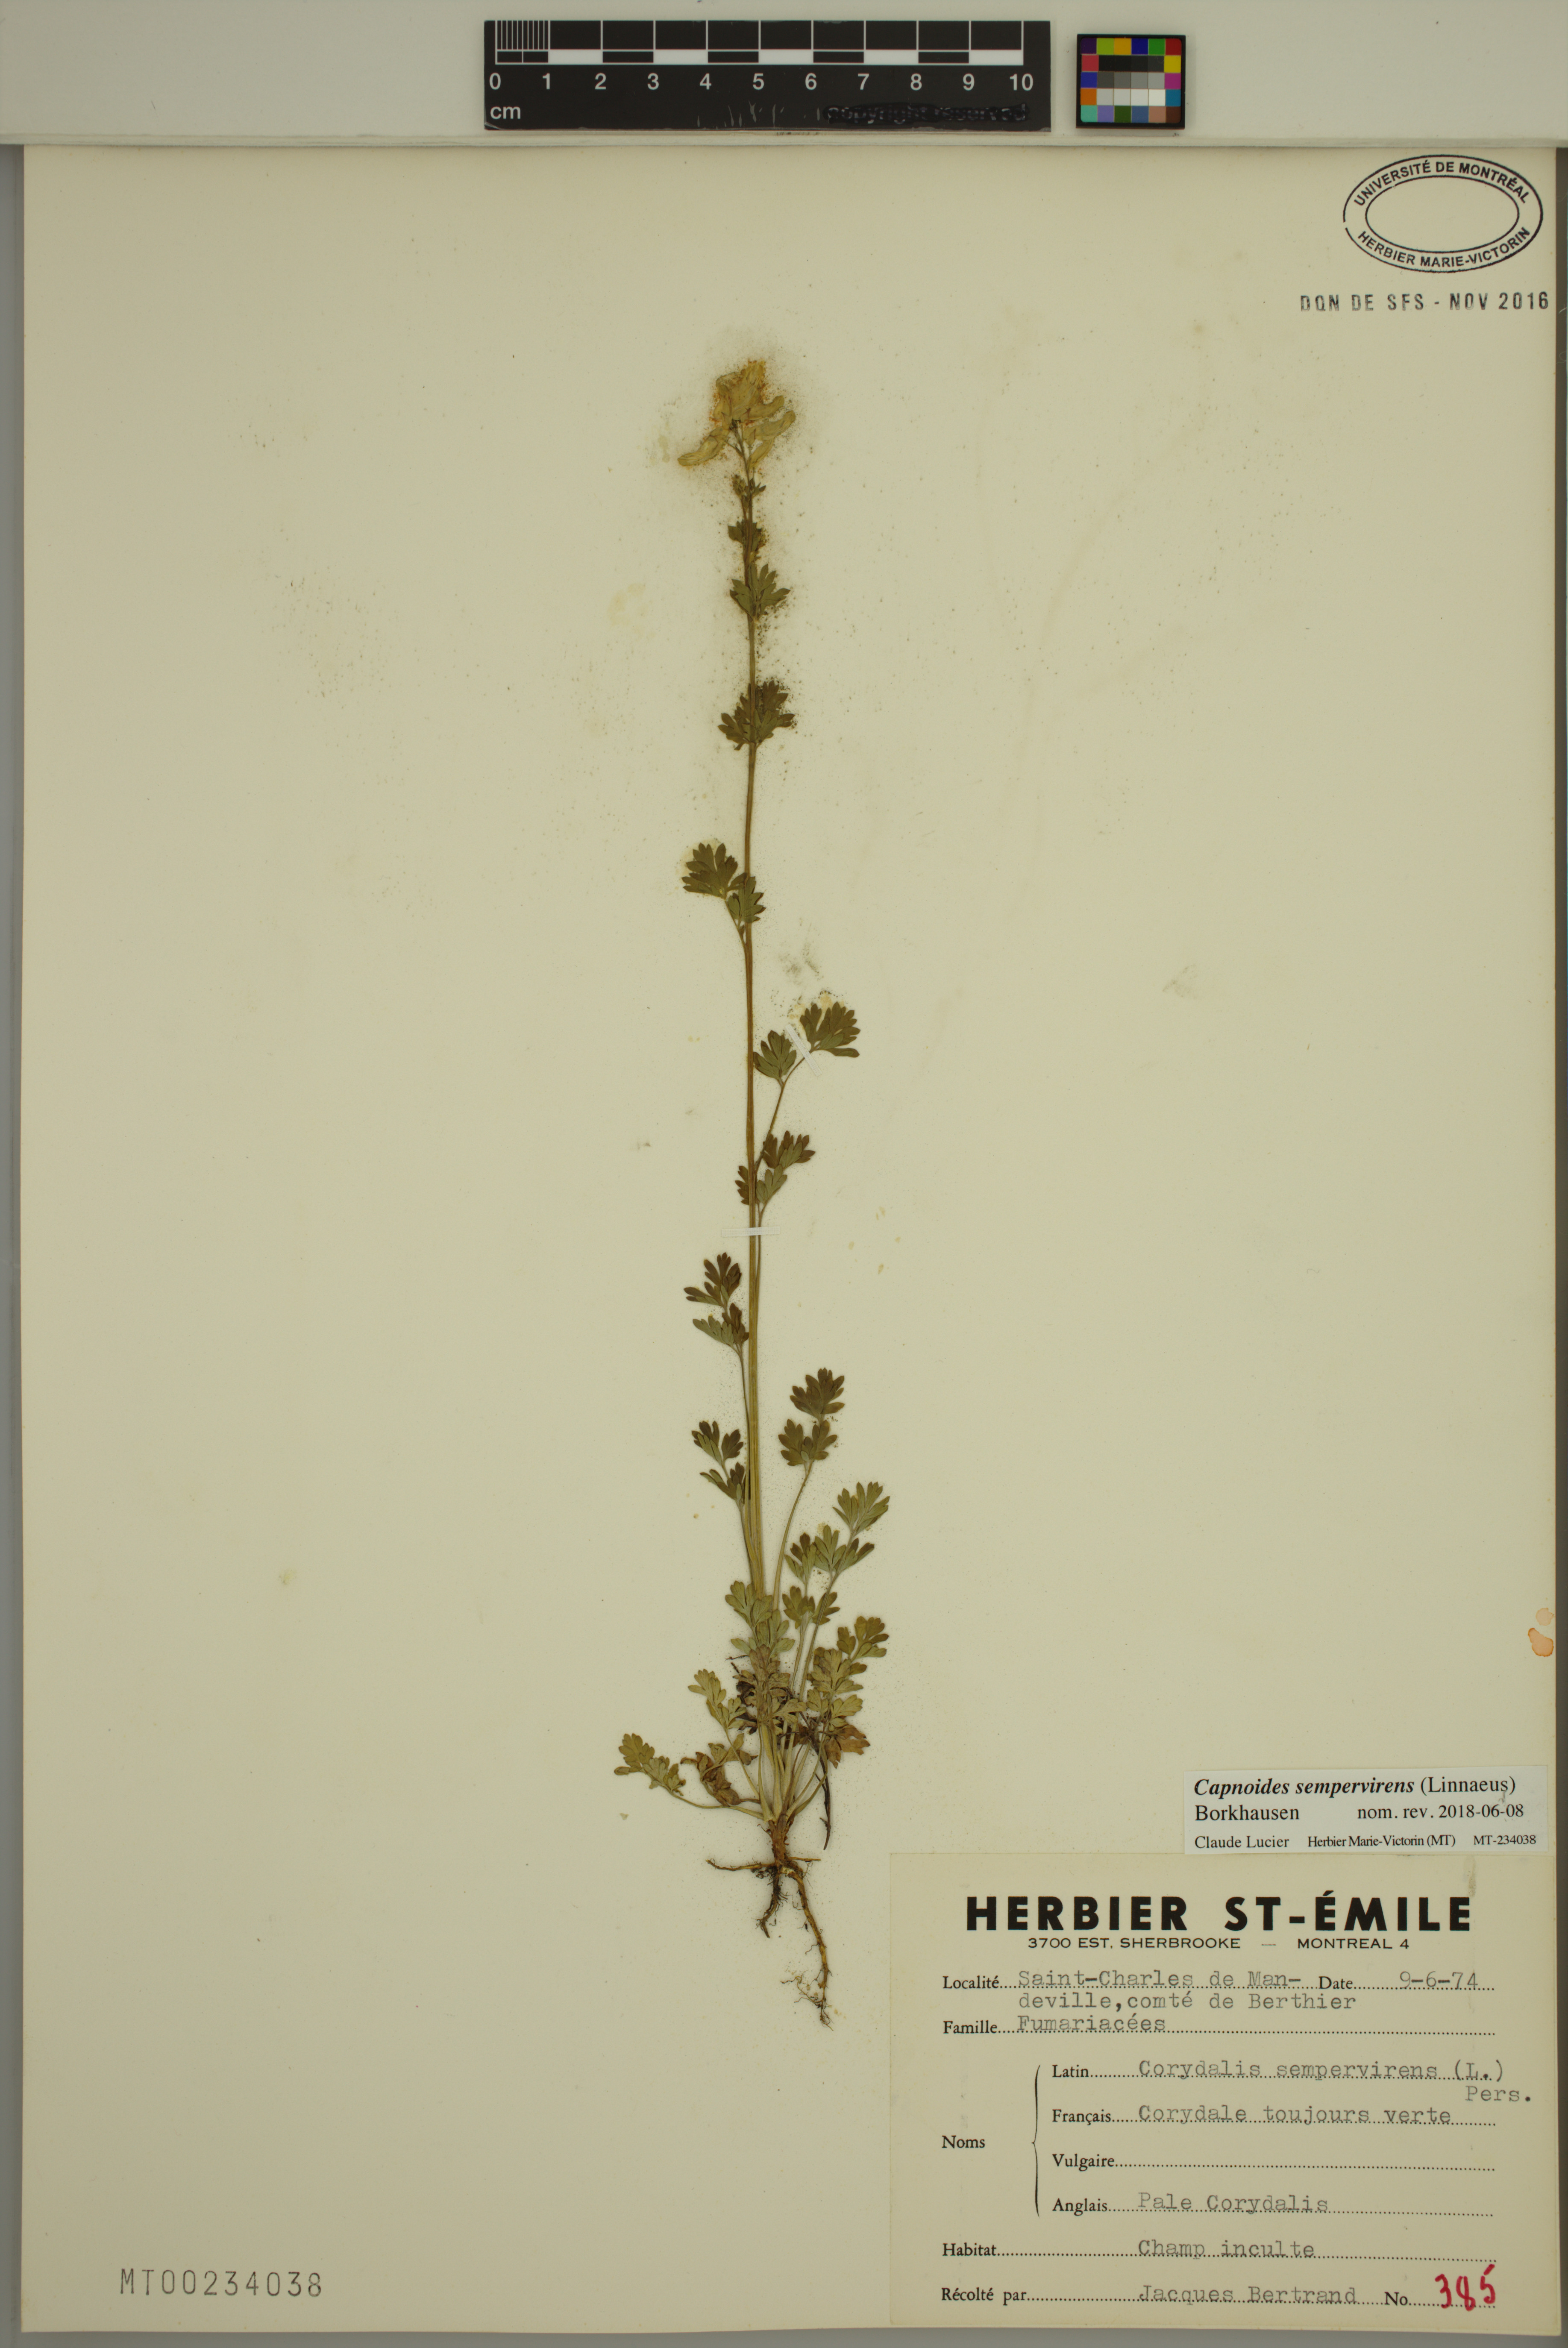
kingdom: Plantae
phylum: Tracheophyta
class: Magnoliopsida
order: Ranunculales
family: Papaveraceae
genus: Capnoides
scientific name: Capnoides sempervirens
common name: Rock harlequin
